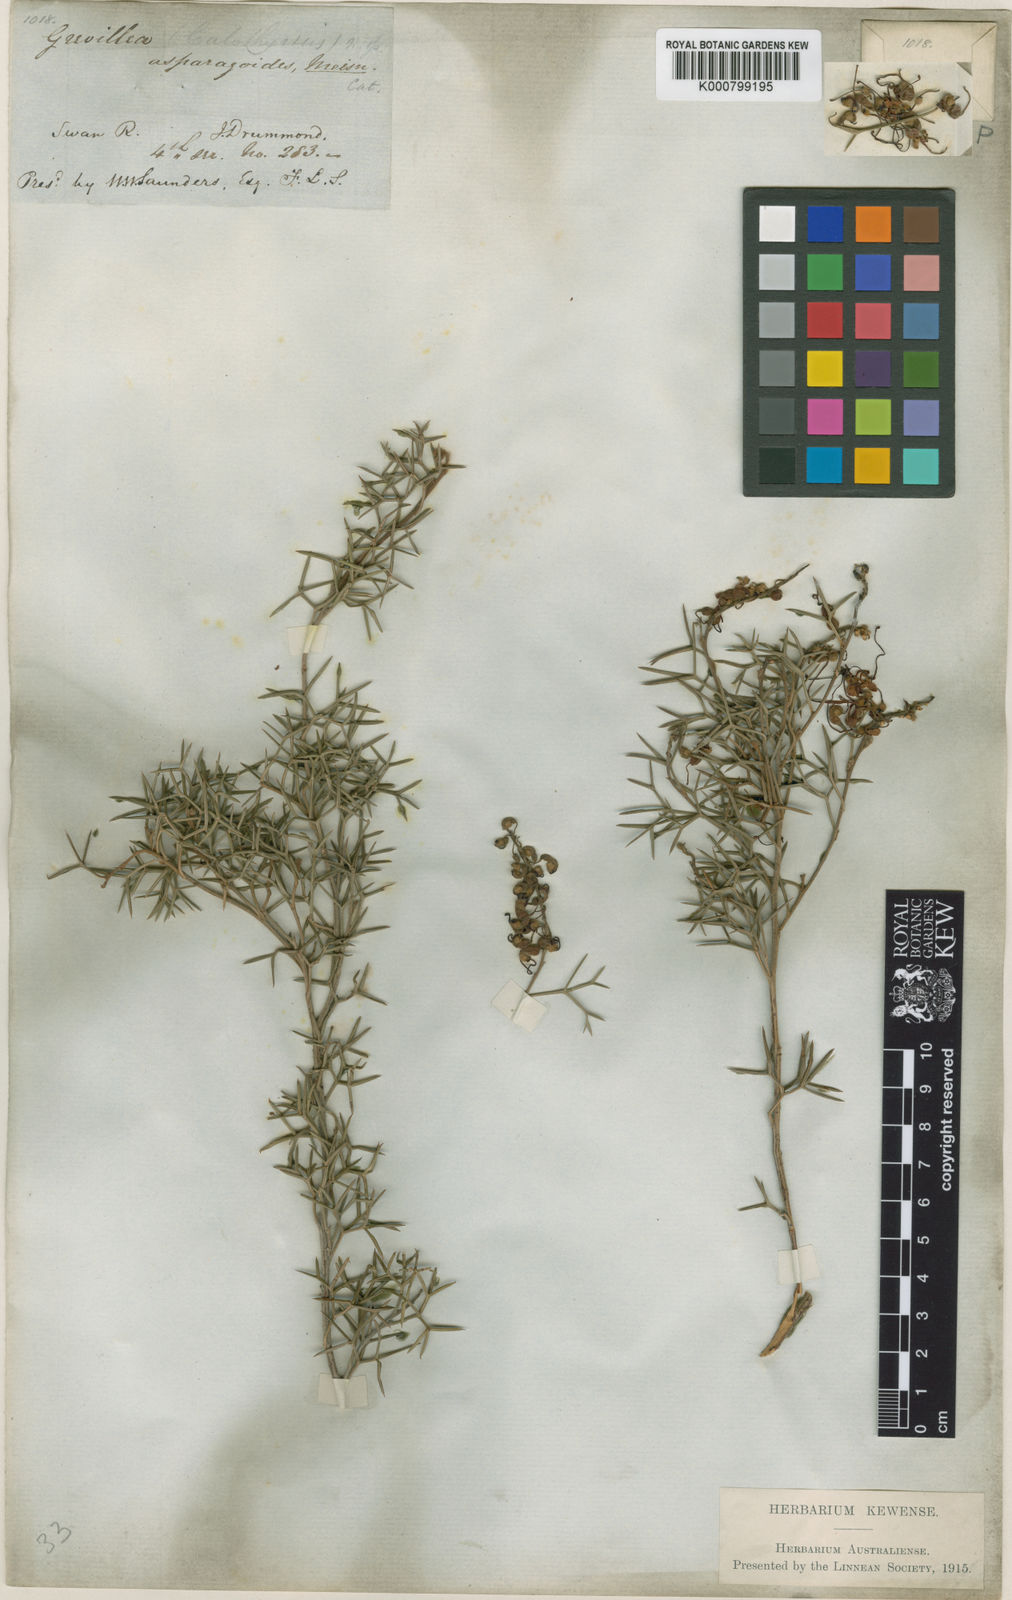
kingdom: Plantae
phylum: Tracheophyta
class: Magnoliopsida
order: Proteales
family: Proteaceae
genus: Grevillea
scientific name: Grevillea asparagoides
